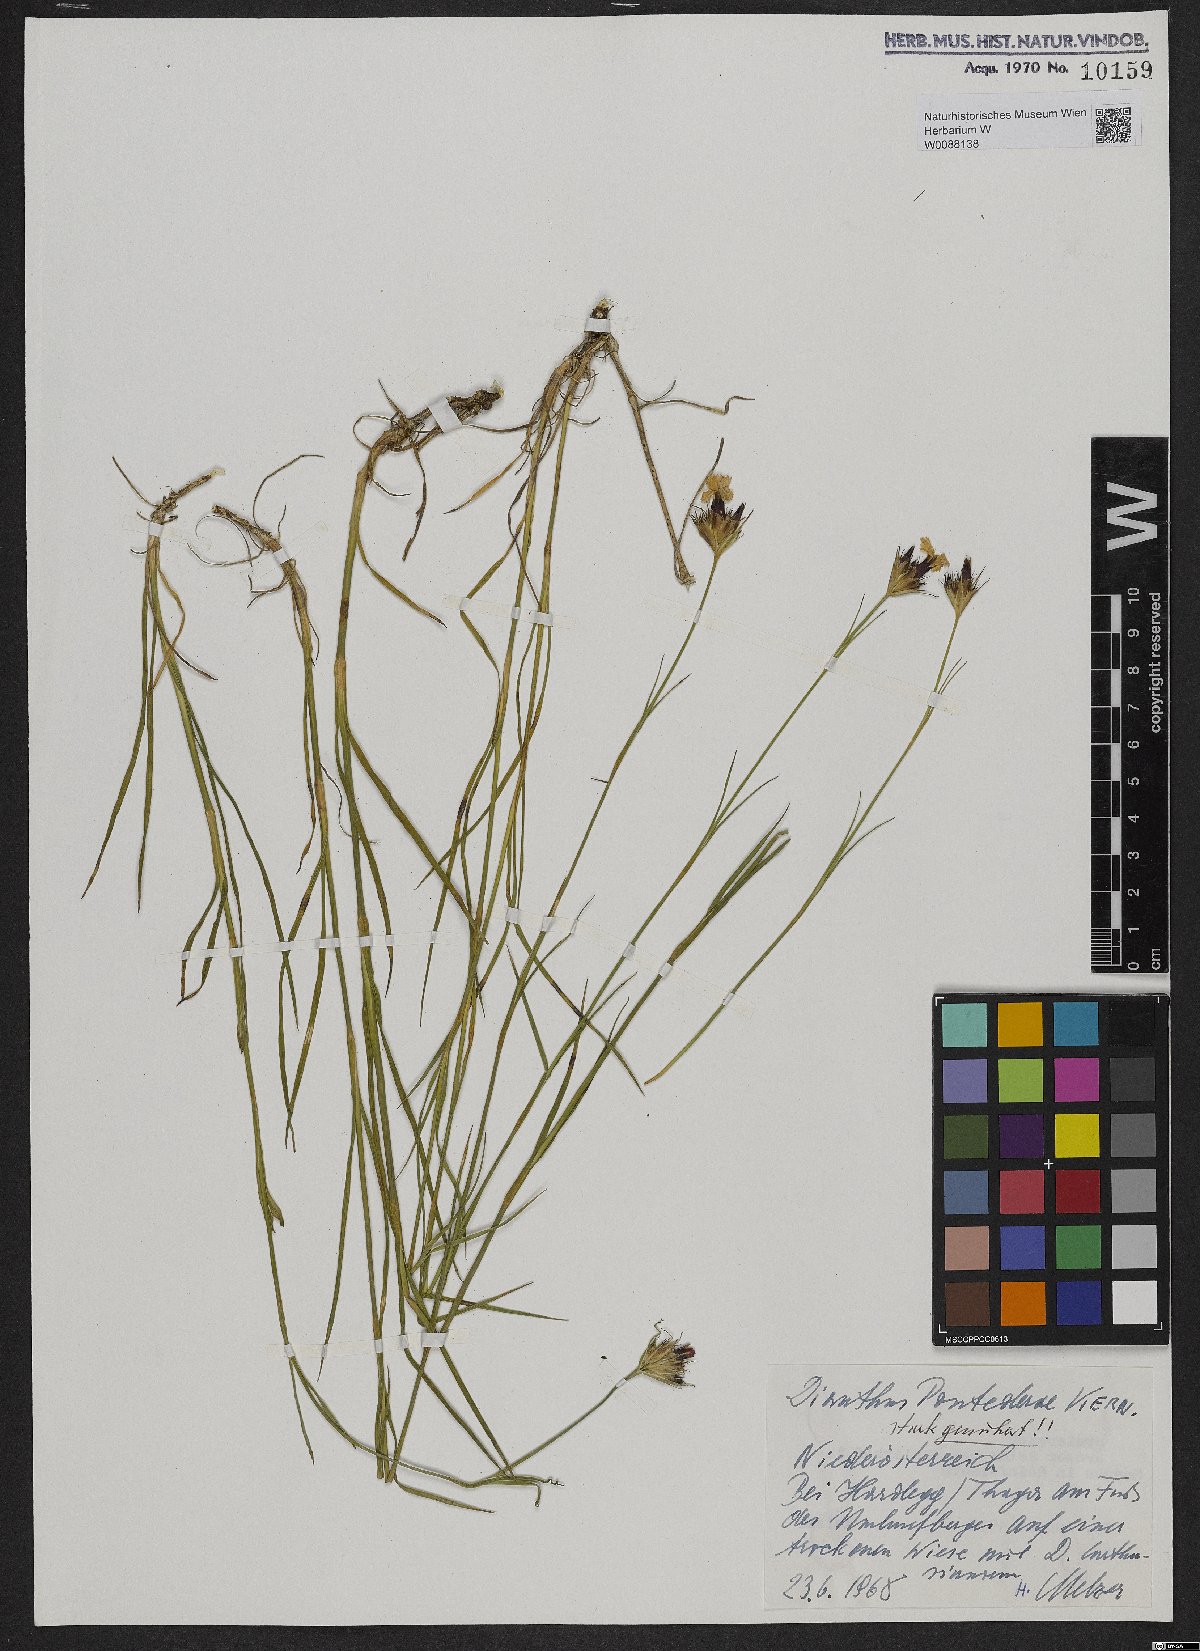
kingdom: Plantae
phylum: Tracheophyta
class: Magnoliopsida
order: Caryophyllales
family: Caryophyllaceae
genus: Dianthus
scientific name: Dianthus pontederae
